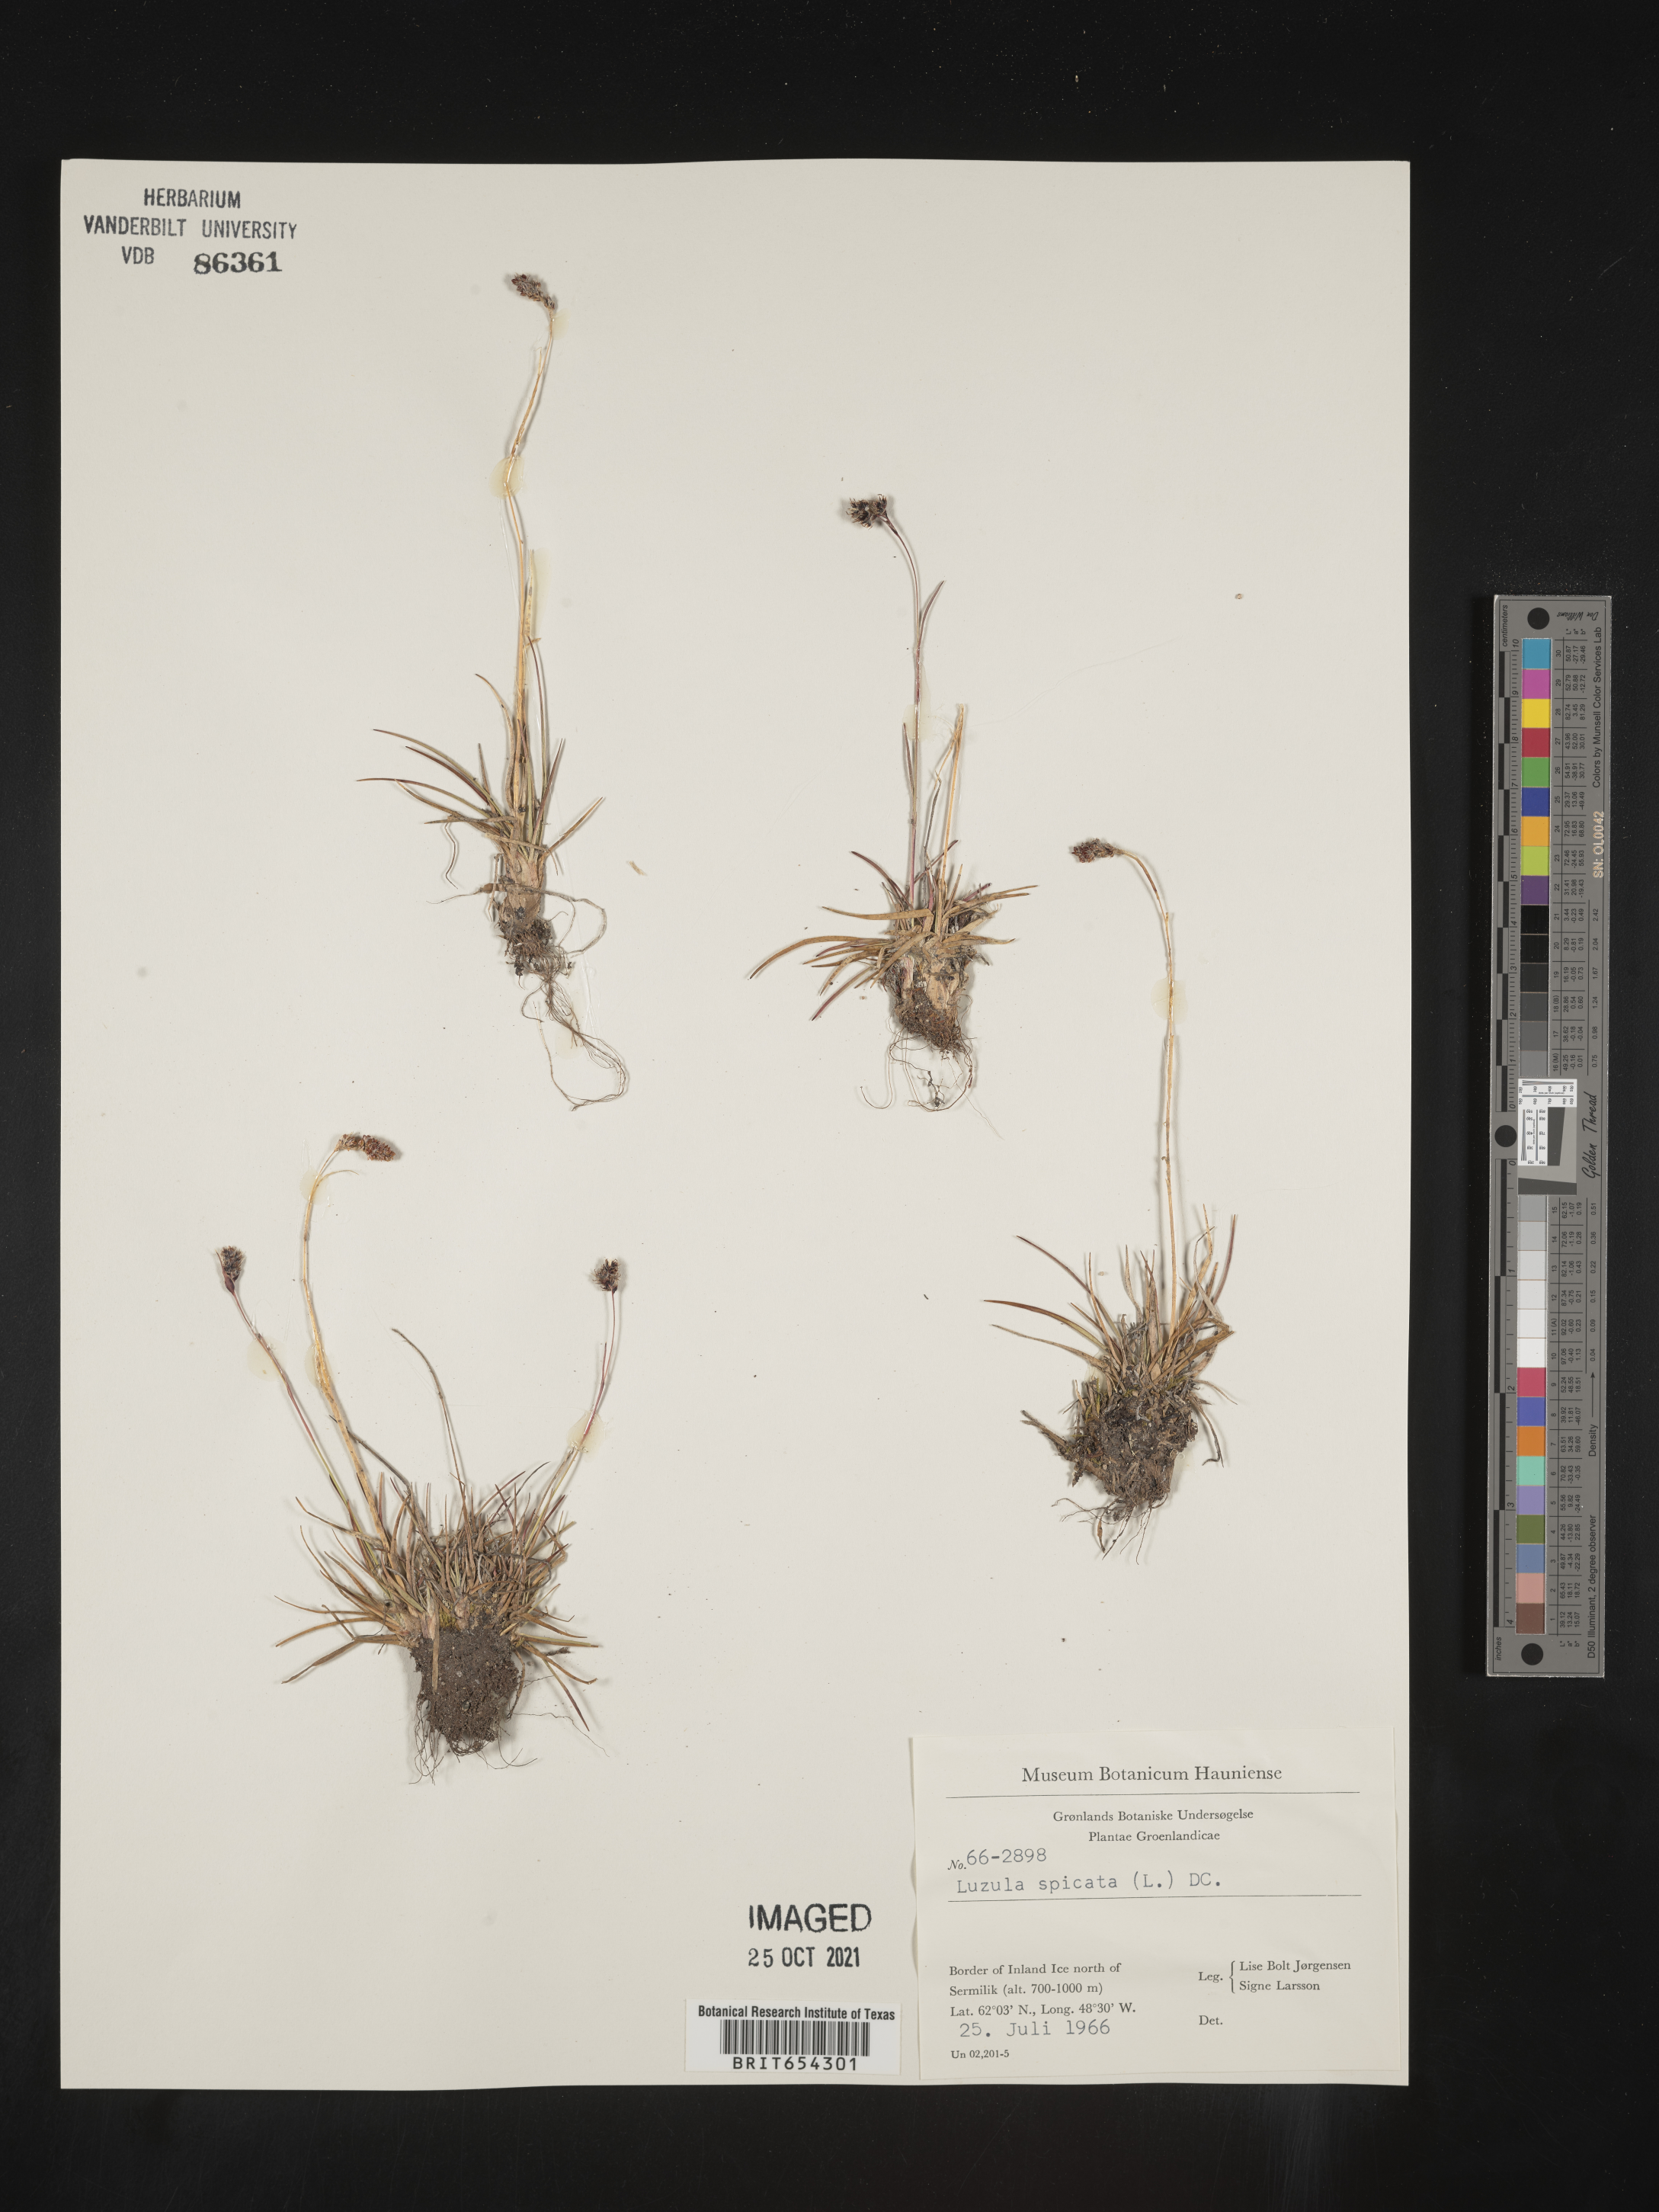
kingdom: Plantae
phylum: Tracheophyta
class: Liliopsida
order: Poales
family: Juncaceae
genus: Luzula
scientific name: Luzula
